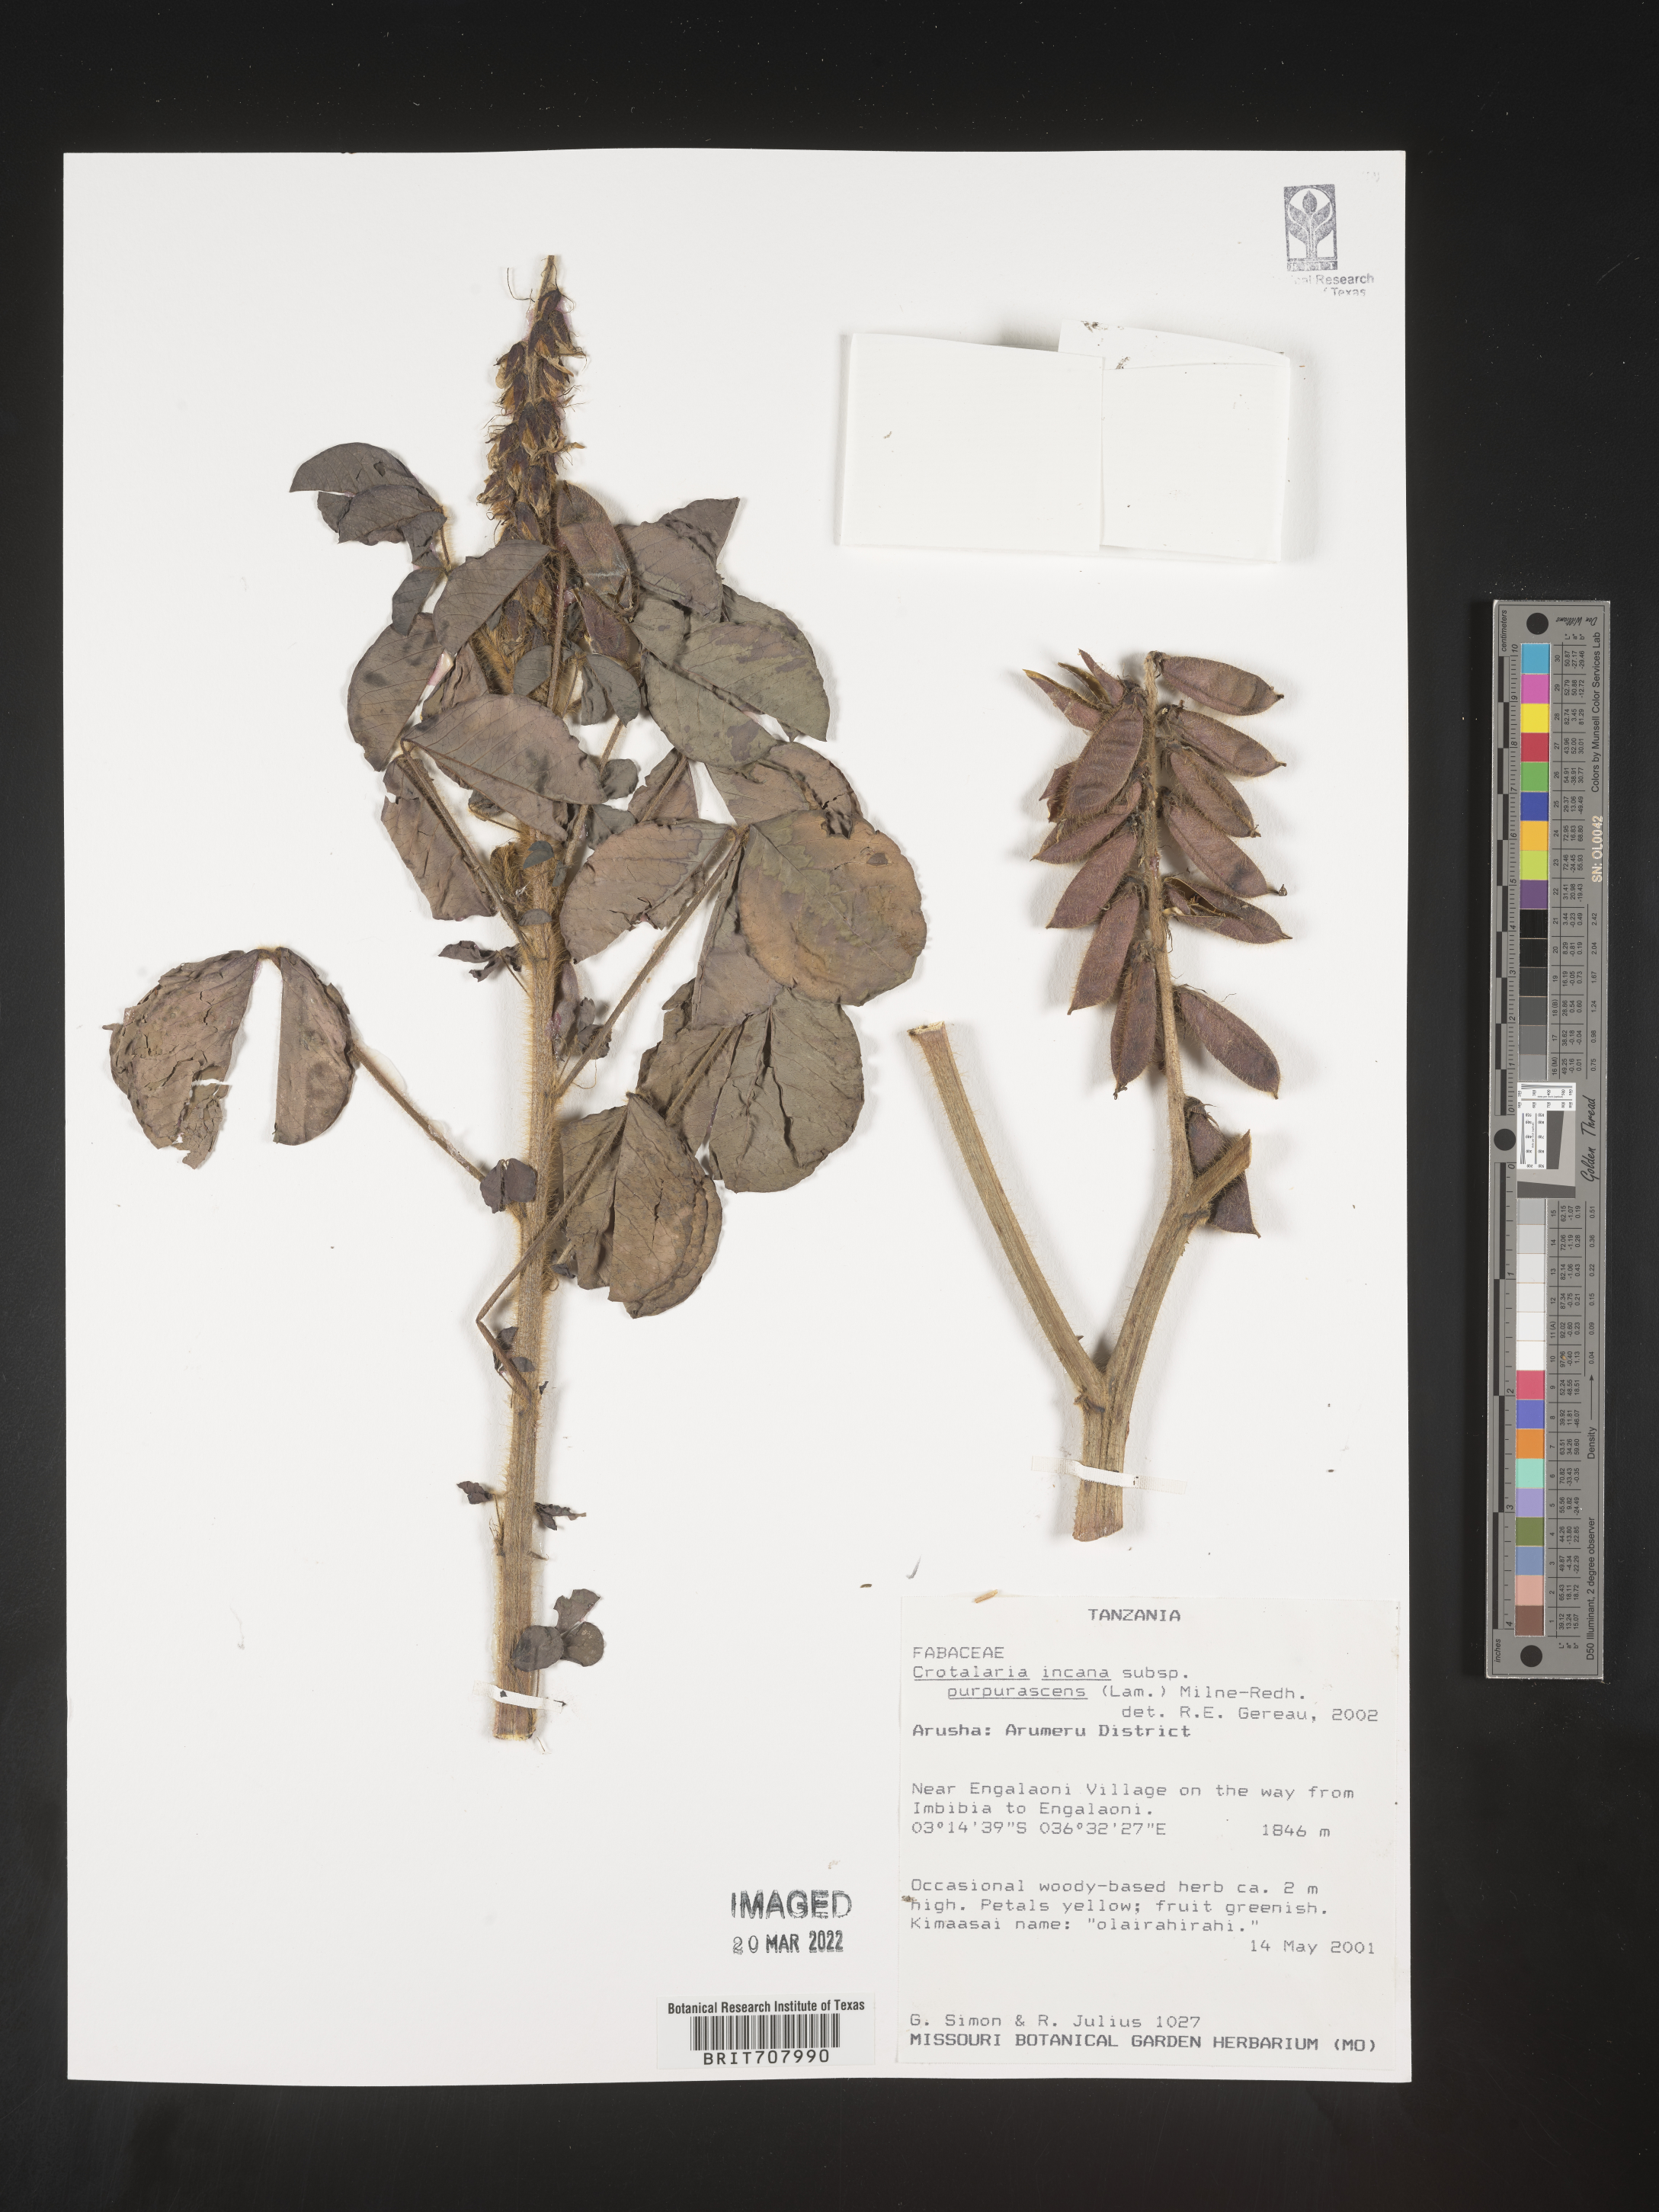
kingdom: Plantae
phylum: Tracheophyta
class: Magnoliopsida
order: Fabales
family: Fabaceae
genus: Crotalaria
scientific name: Crotalaria
